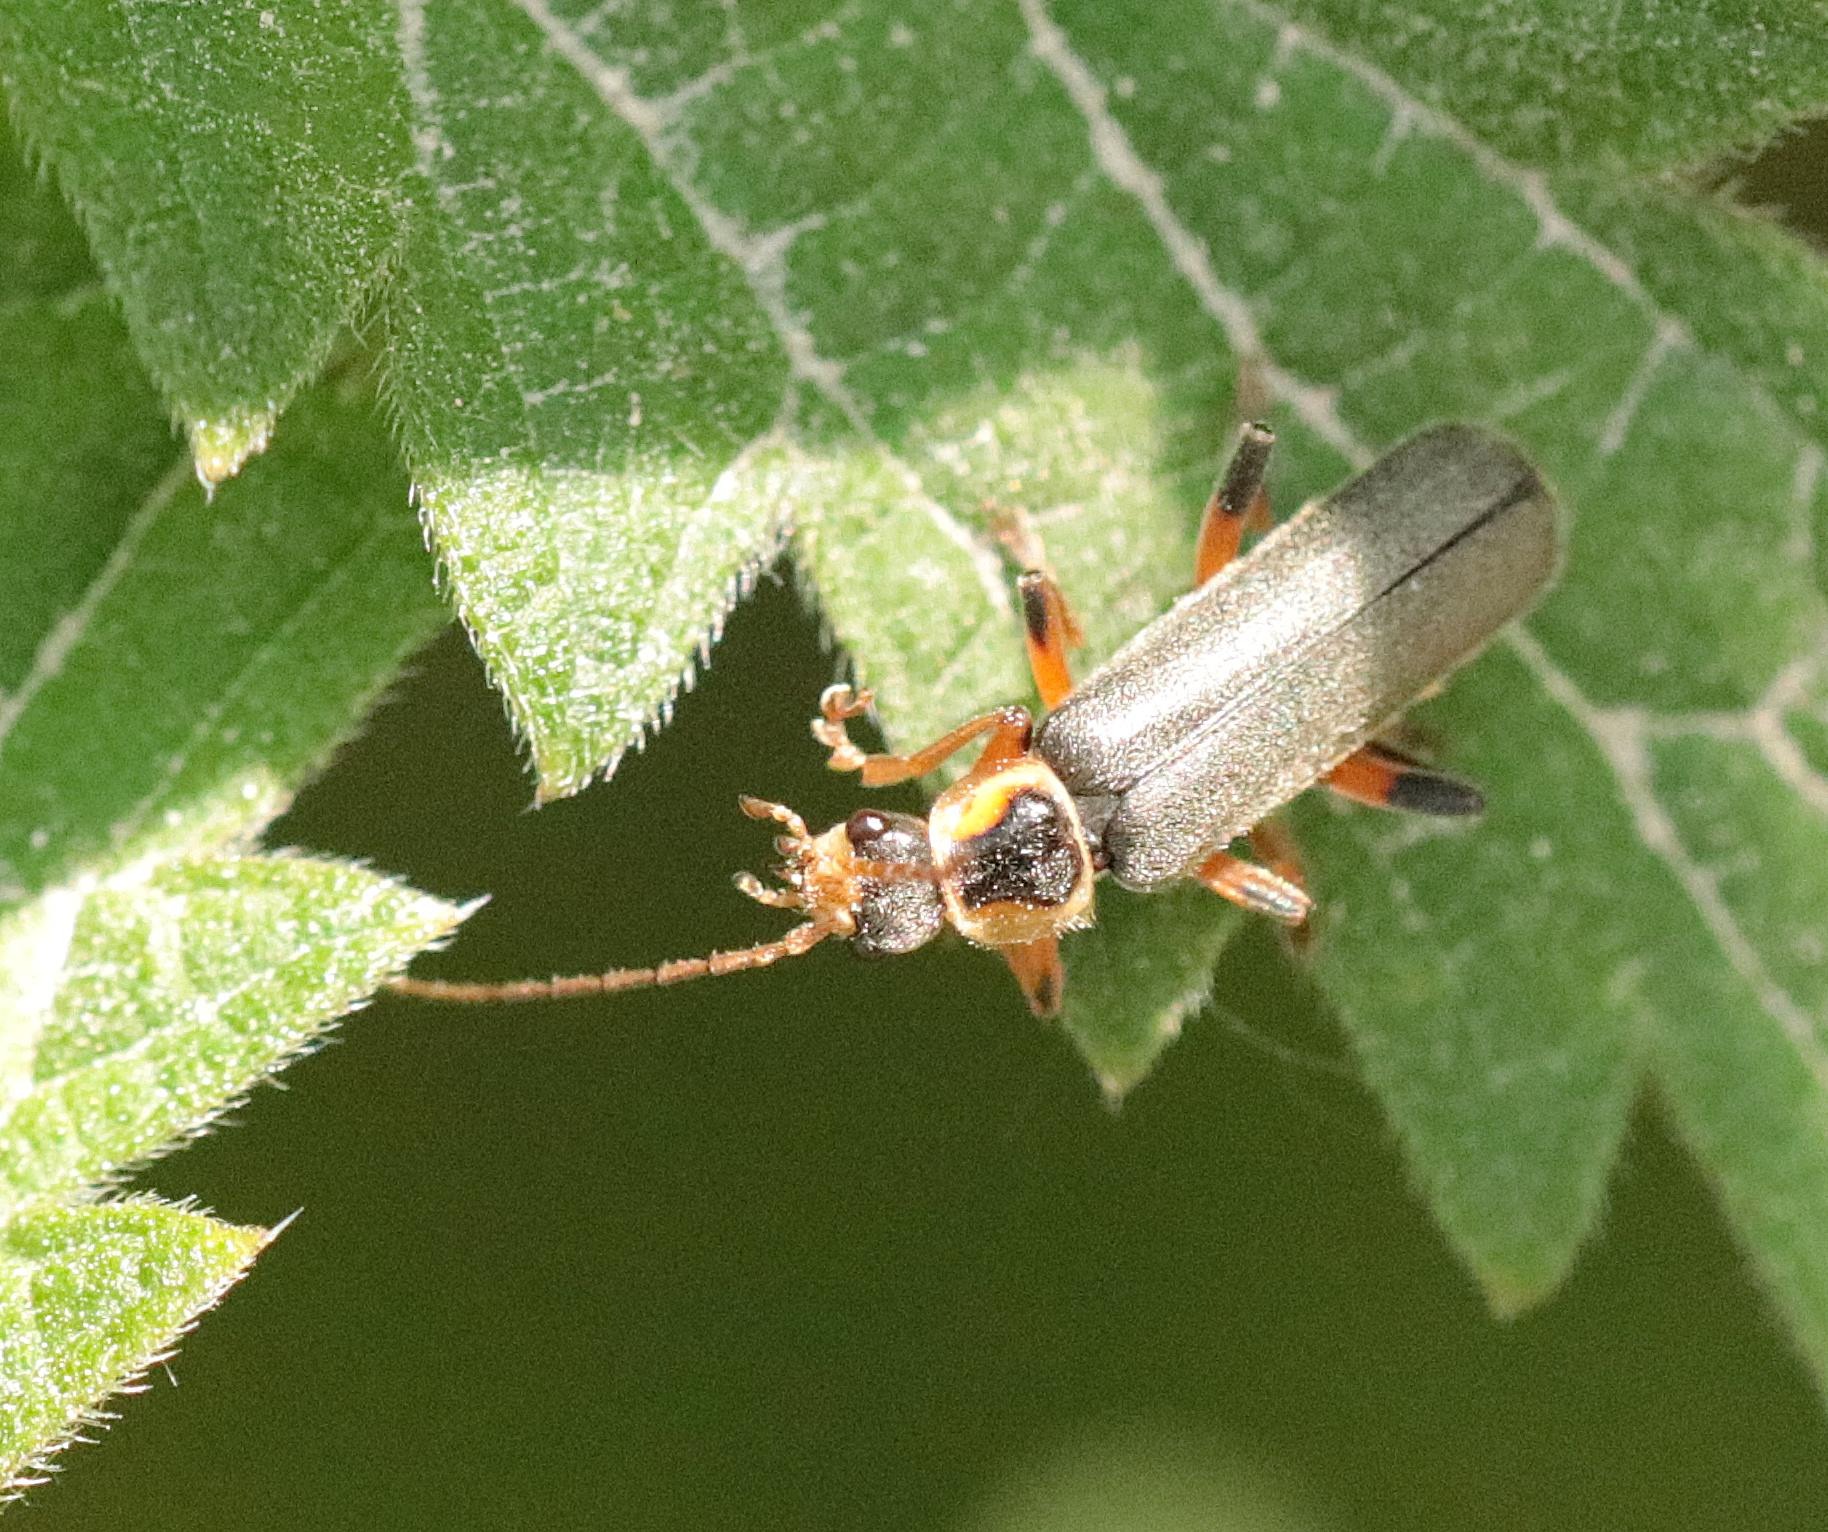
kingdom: Animalia
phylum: Arthropoda
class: Insecta
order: Coleoptera
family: Cantharidae
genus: Cantharis
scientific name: Cantharis nigricans
